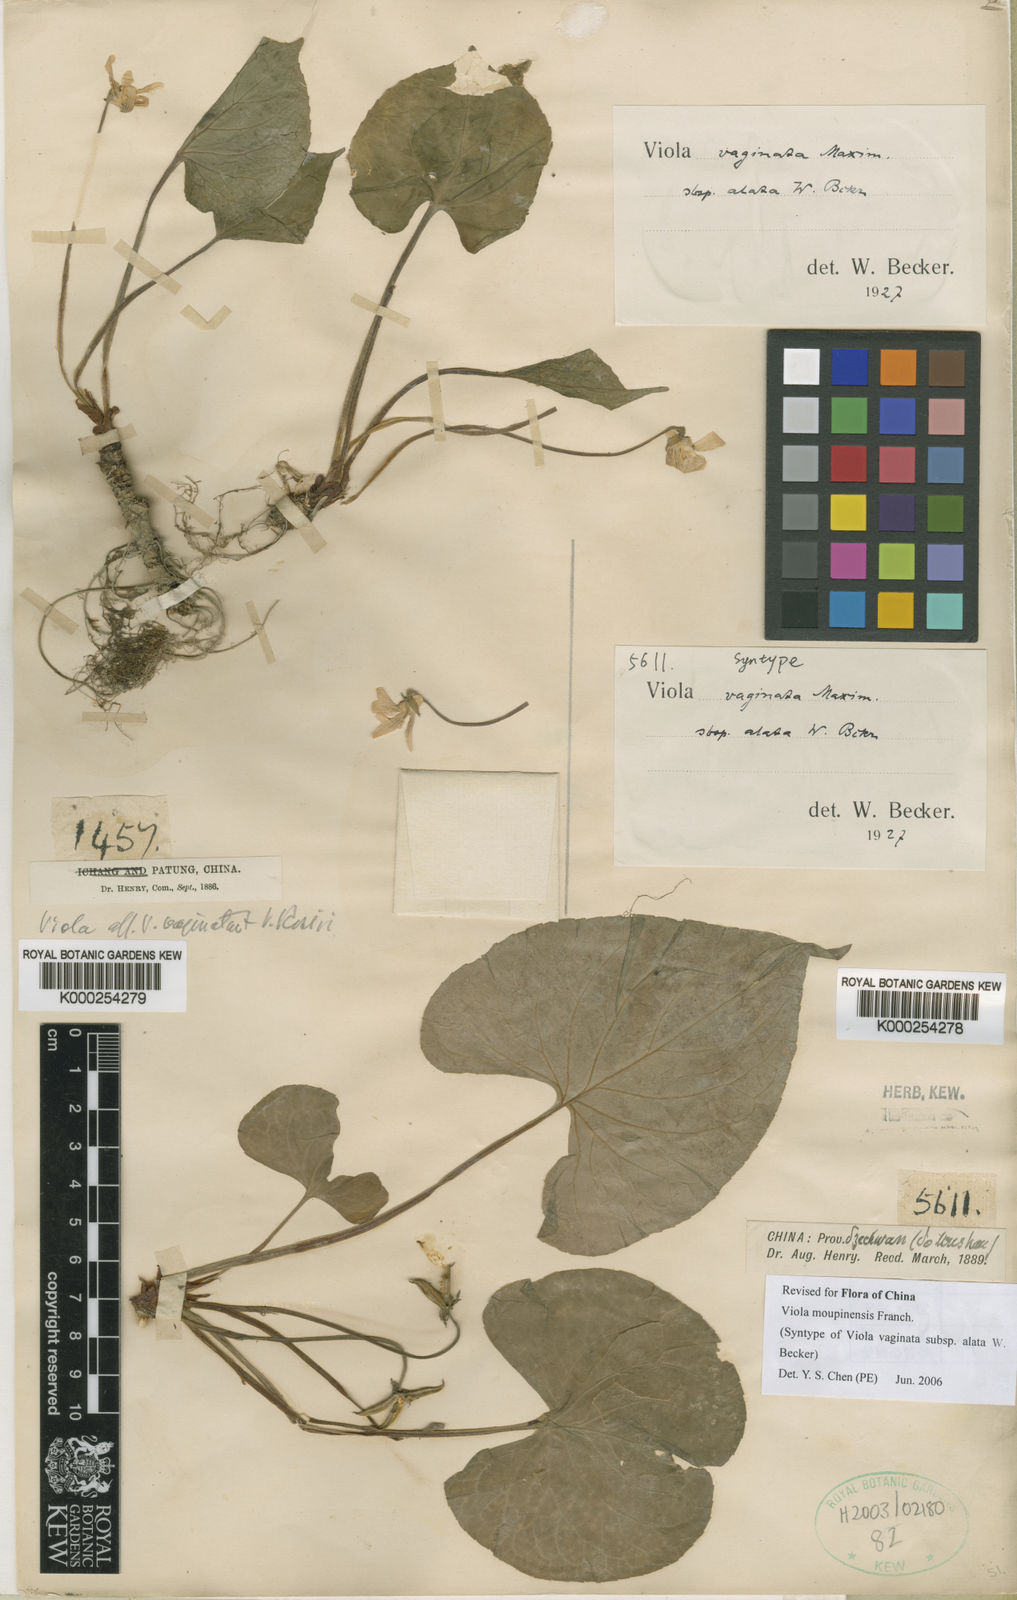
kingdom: Plantae
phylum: Tracheophyta
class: Magnoliopsida
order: Malpighiales
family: Violaceae
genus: Viola
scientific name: Viola vaginata
